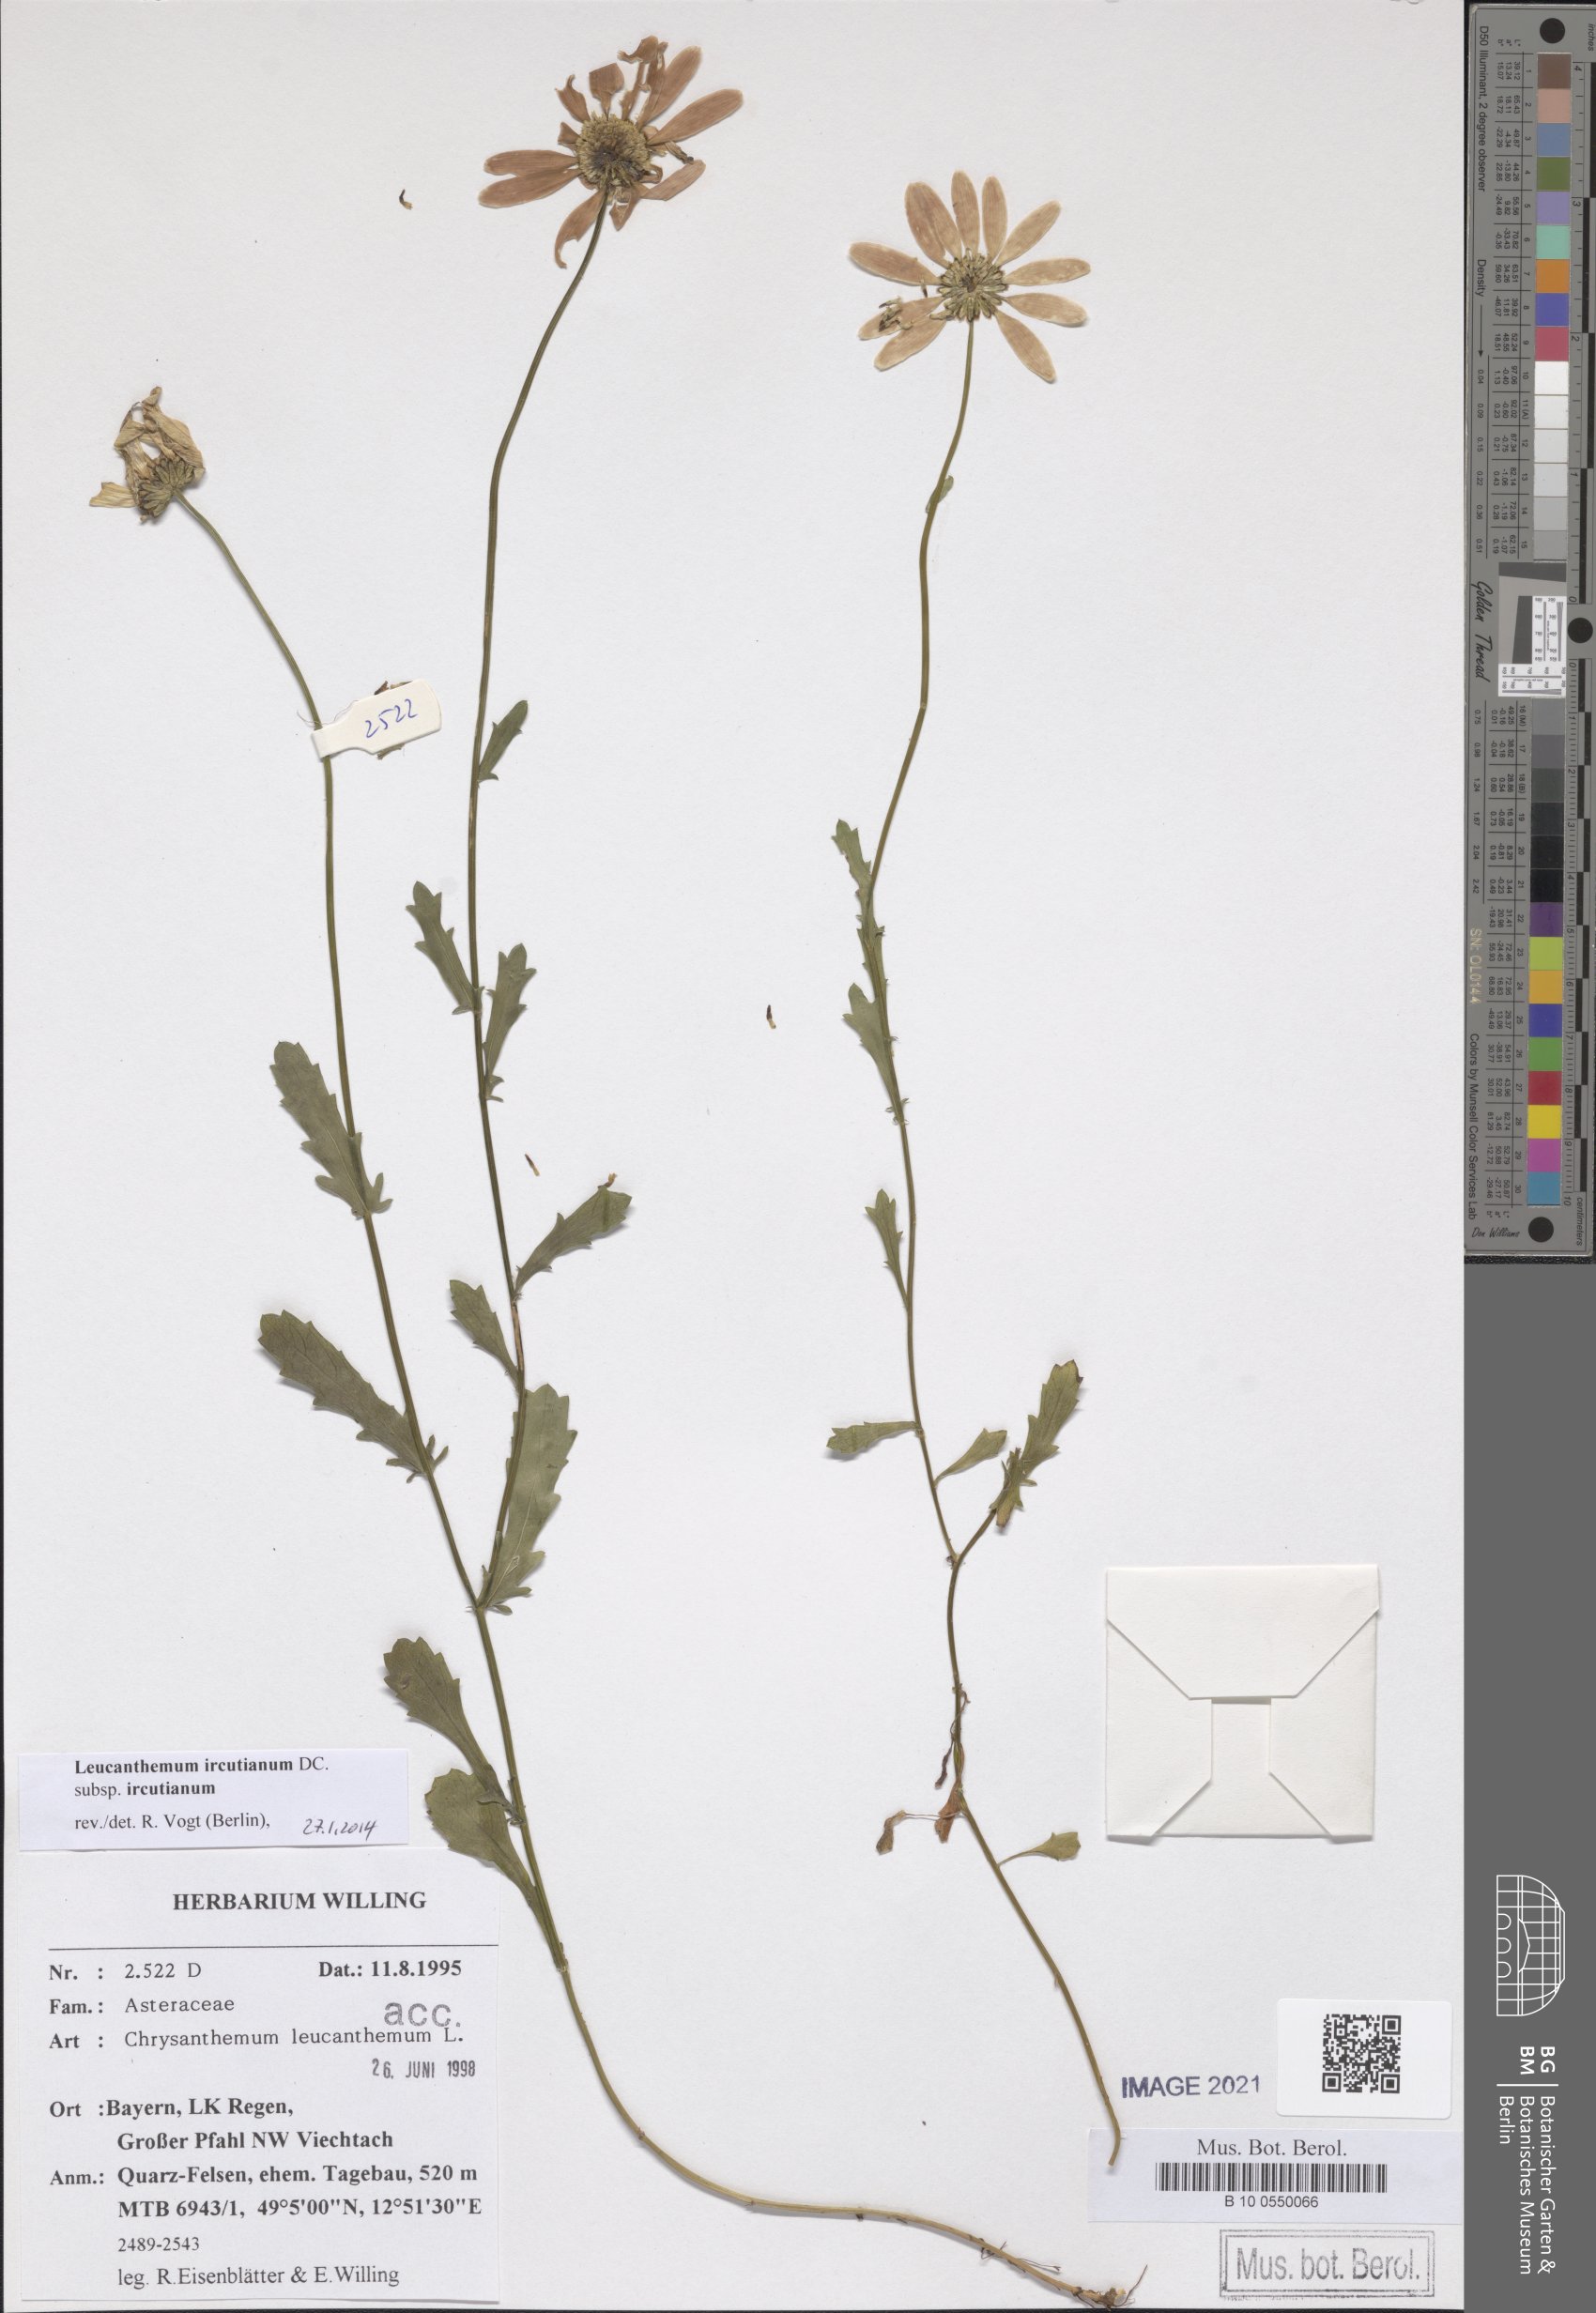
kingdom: Plantae
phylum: Tracheophyta
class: Magnoliopsida
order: Asterales
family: Asteraceae
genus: Leucanthemum
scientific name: Leucanthemum ircutianum
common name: Daisy
